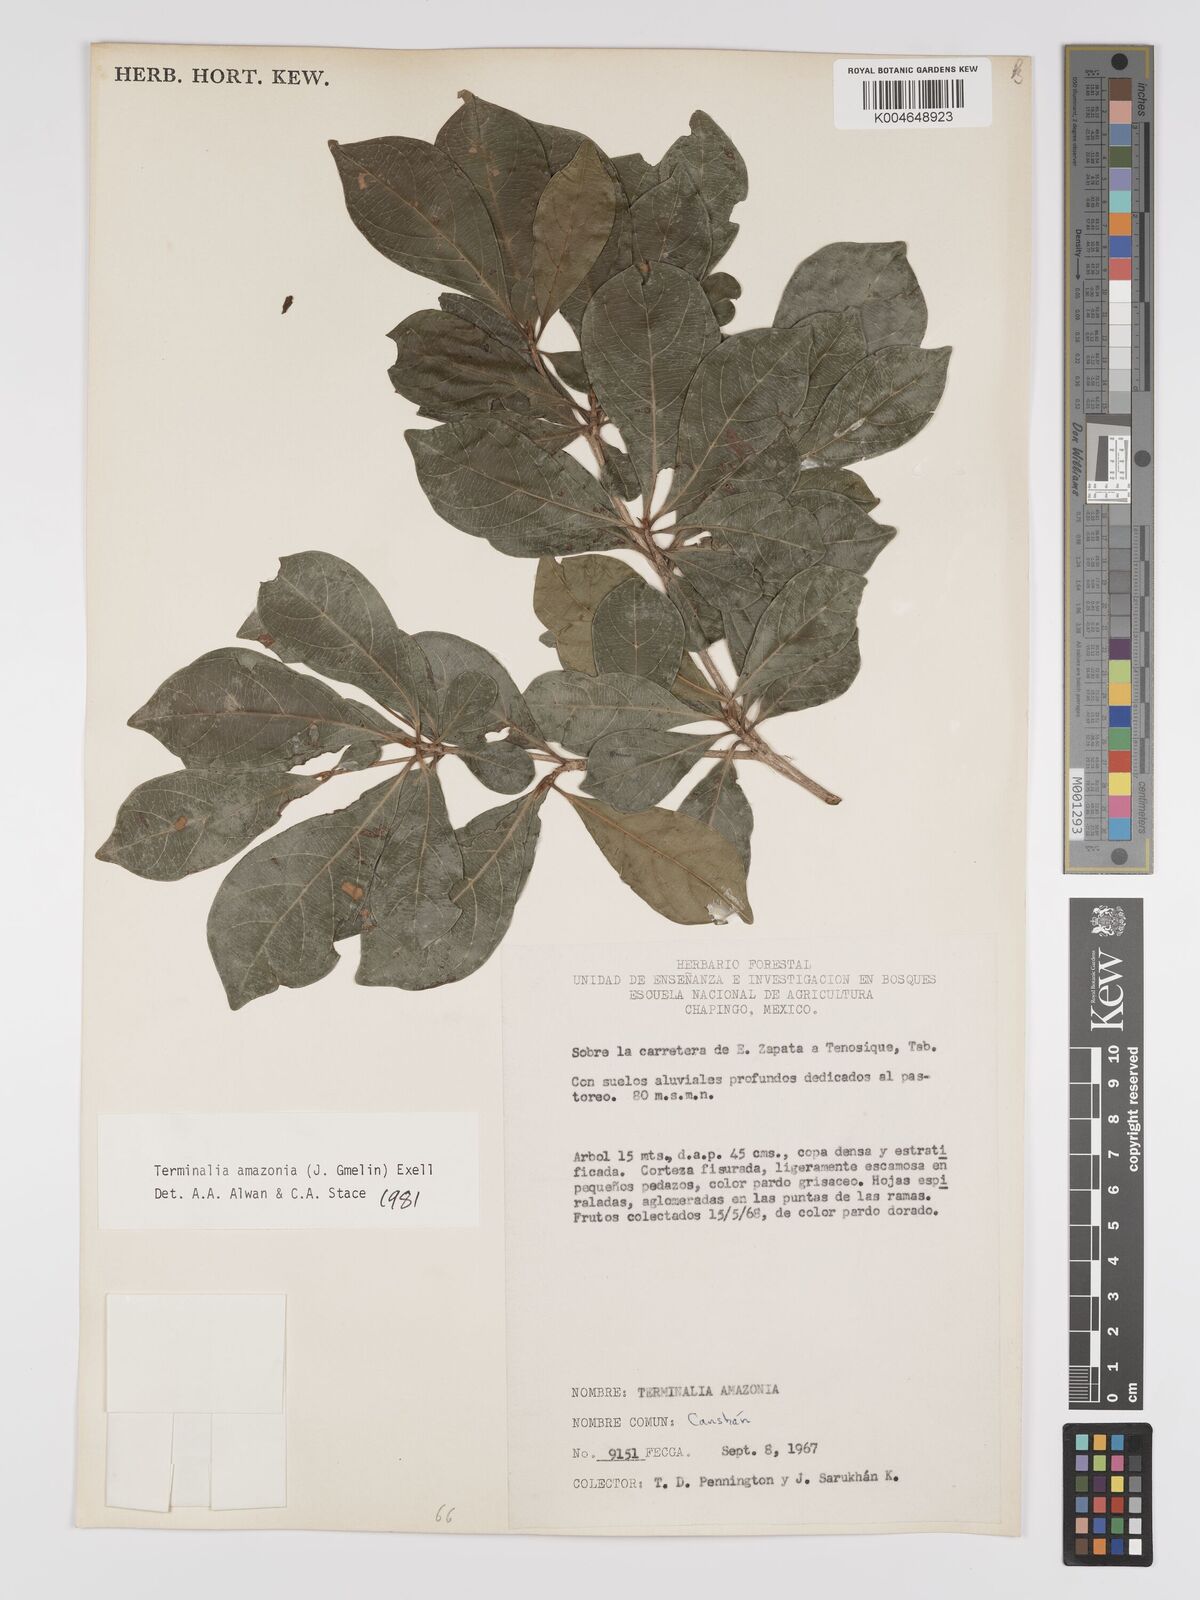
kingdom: Plantae
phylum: Tracheophyta
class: Magnoliopsida
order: Myrtales
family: Combretaceae
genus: Terminalia
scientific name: Terminalia amazonica
